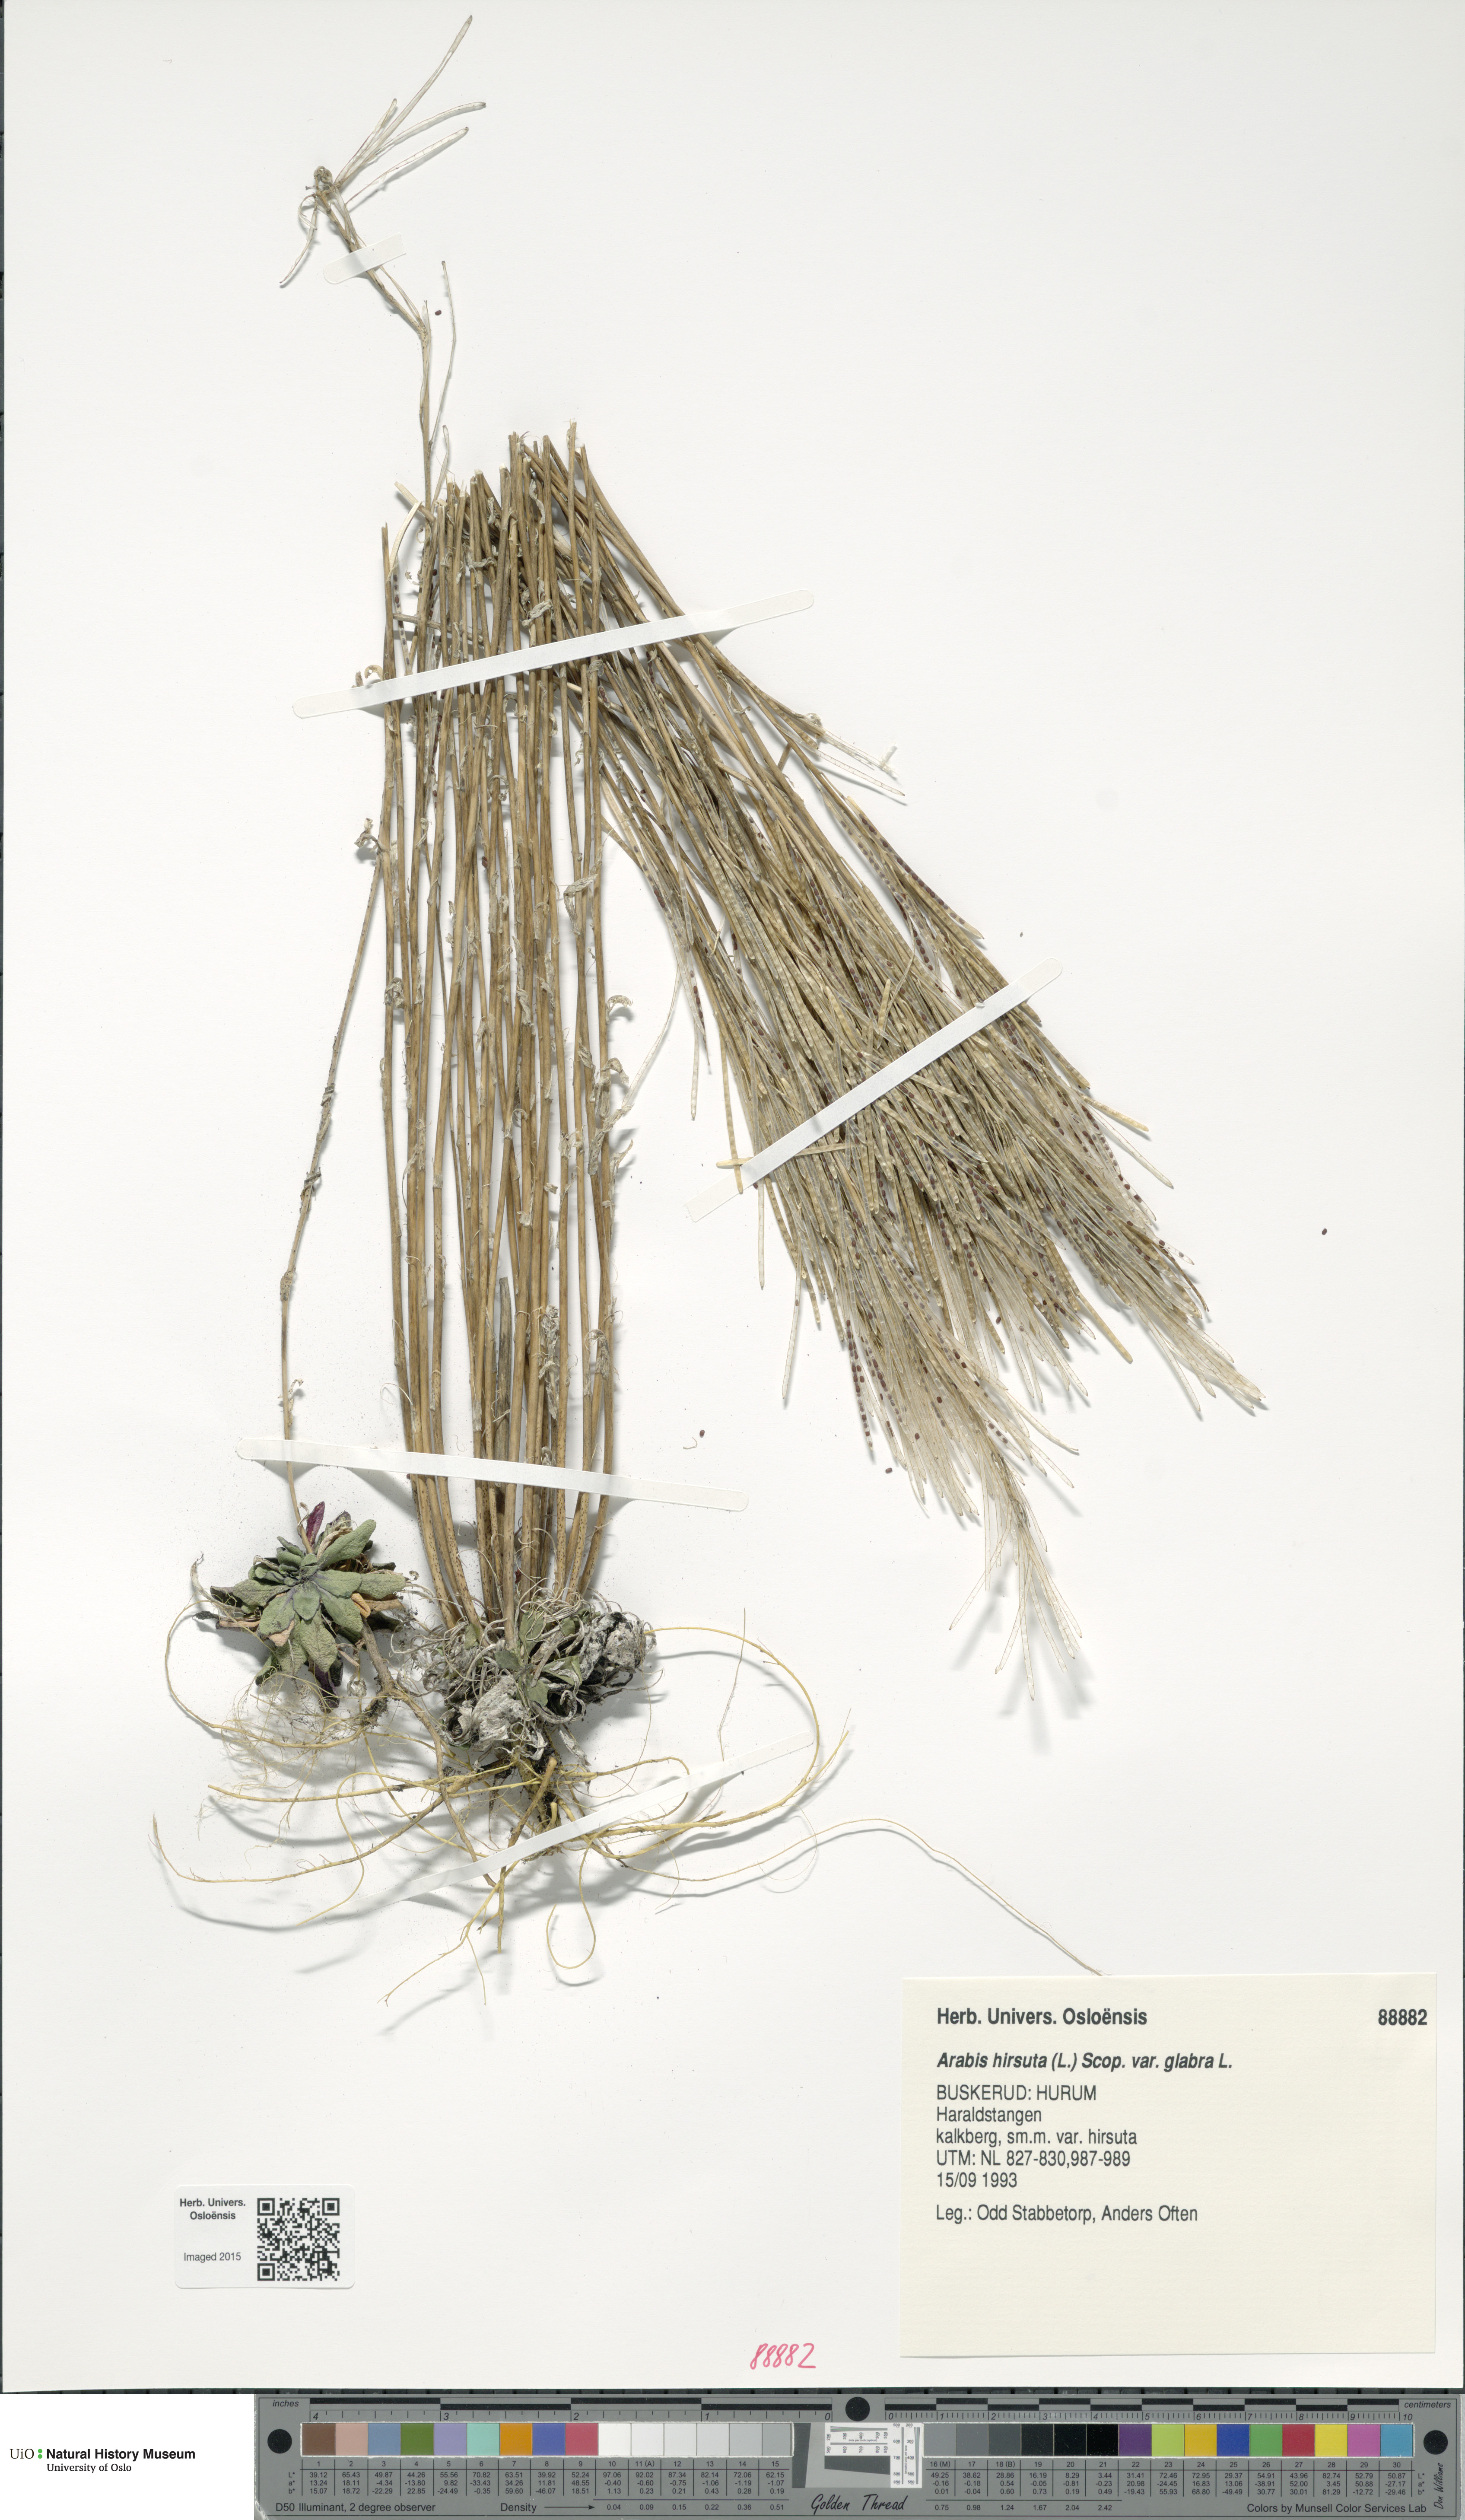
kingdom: Plantae
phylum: Tracheophyta
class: Magnoliopsida
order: Brassicales
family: Brassicaceae
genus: Arabis
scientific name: Arabis hirsuta
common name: Hairy rock-cress
